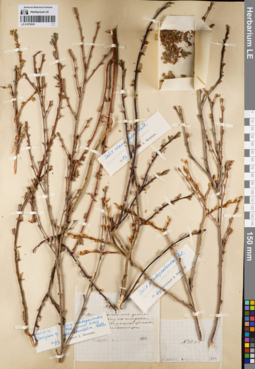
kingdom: Plantae
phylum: Tracheophyta
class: Magnoliopsida
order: Malpighiales
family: Salicaceae
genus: Salix
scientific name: Salix pseudopentandra
